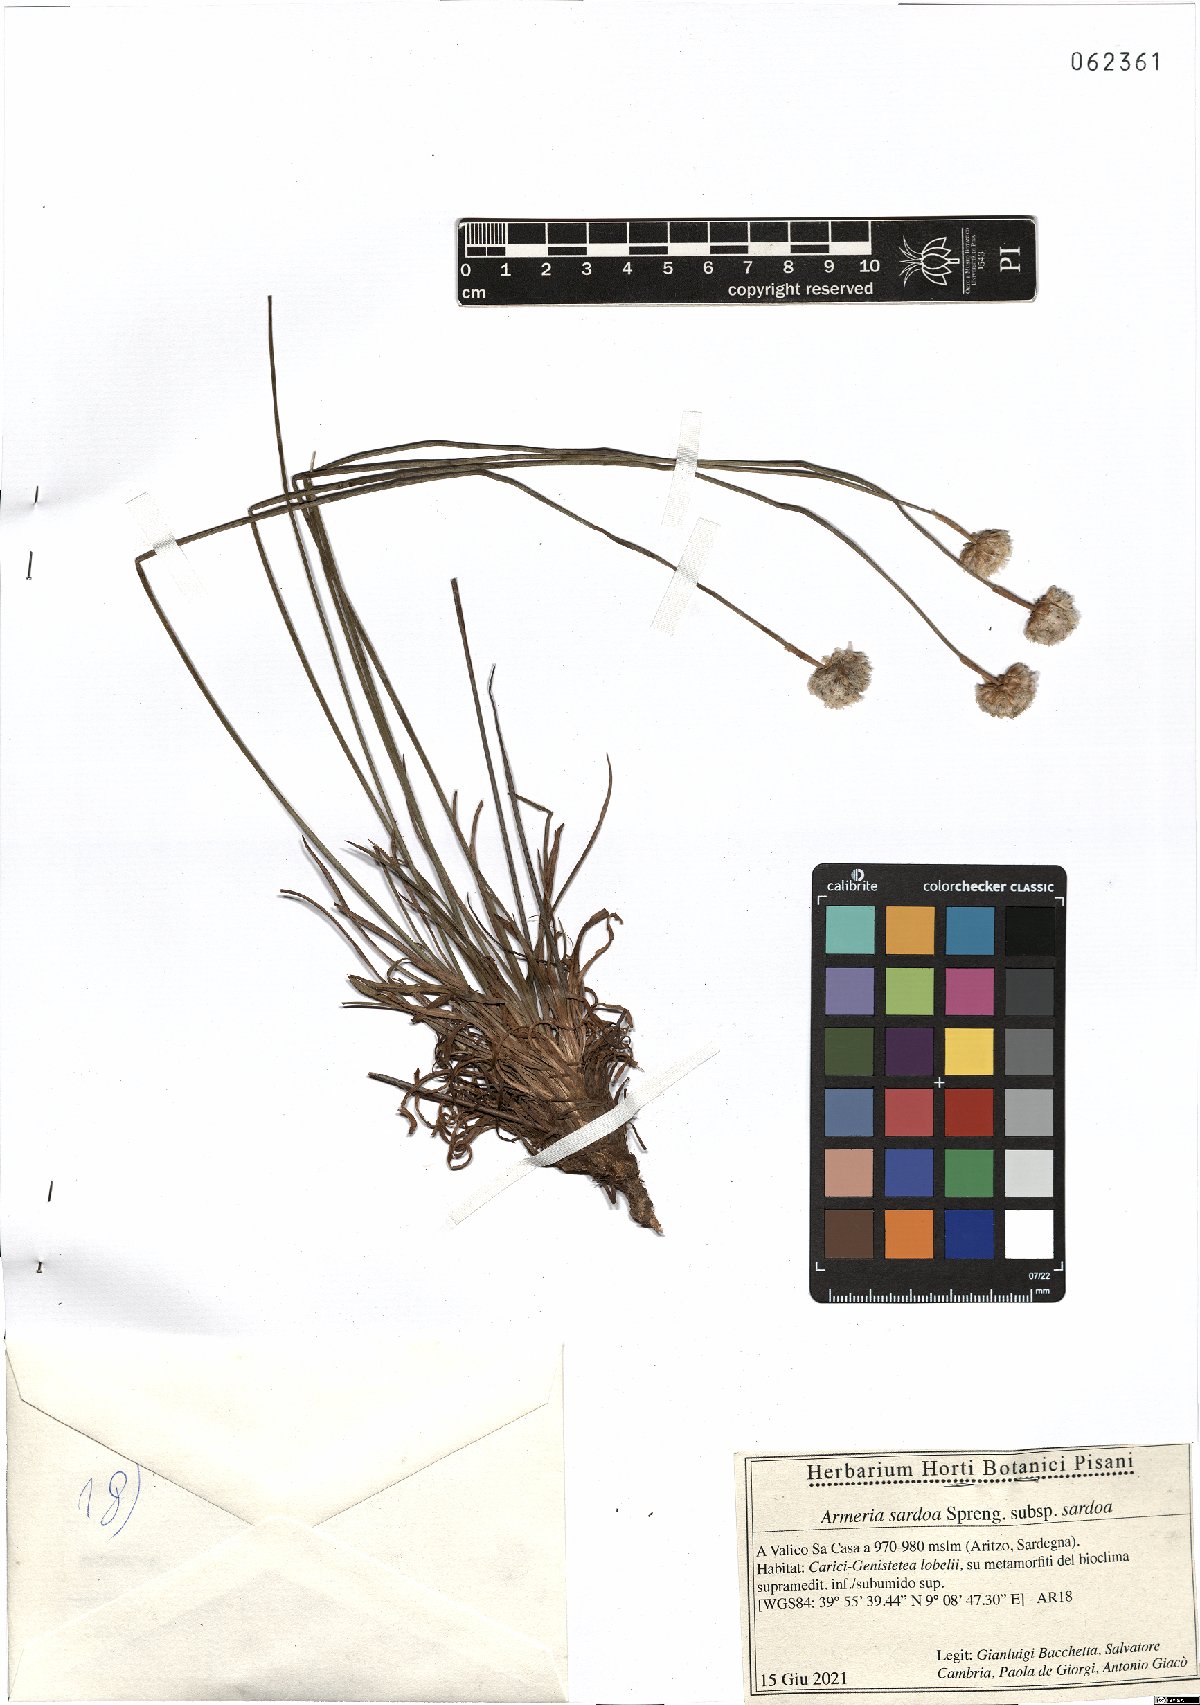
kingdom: Plantae
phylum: Tracheophyta
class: Magnoliopsida
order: Caryophyllales
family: Plumbaginaceae
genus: Armeria
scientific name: Armeria sardoa
